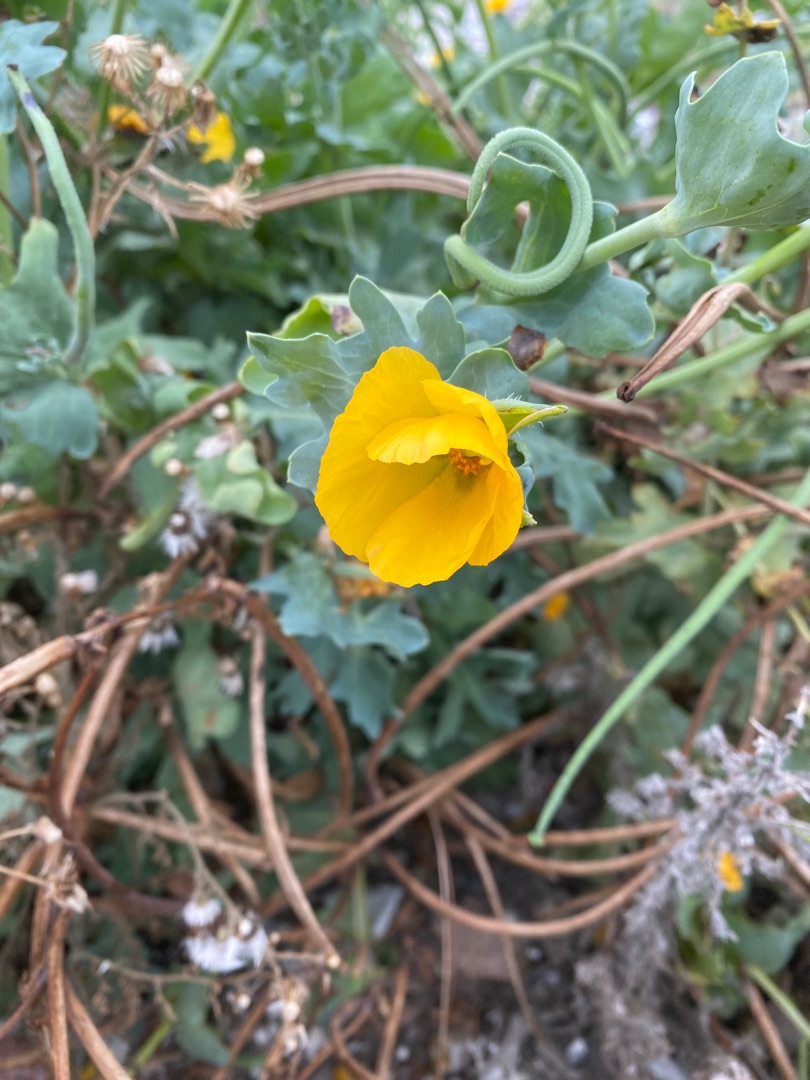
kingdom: Plantae
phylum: Tracheophyta
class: Magnoliopsida
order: Ranunculales
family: Papaveraceae
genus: Glaucium
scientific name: Glaucium flavum
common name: Hornskulpe
